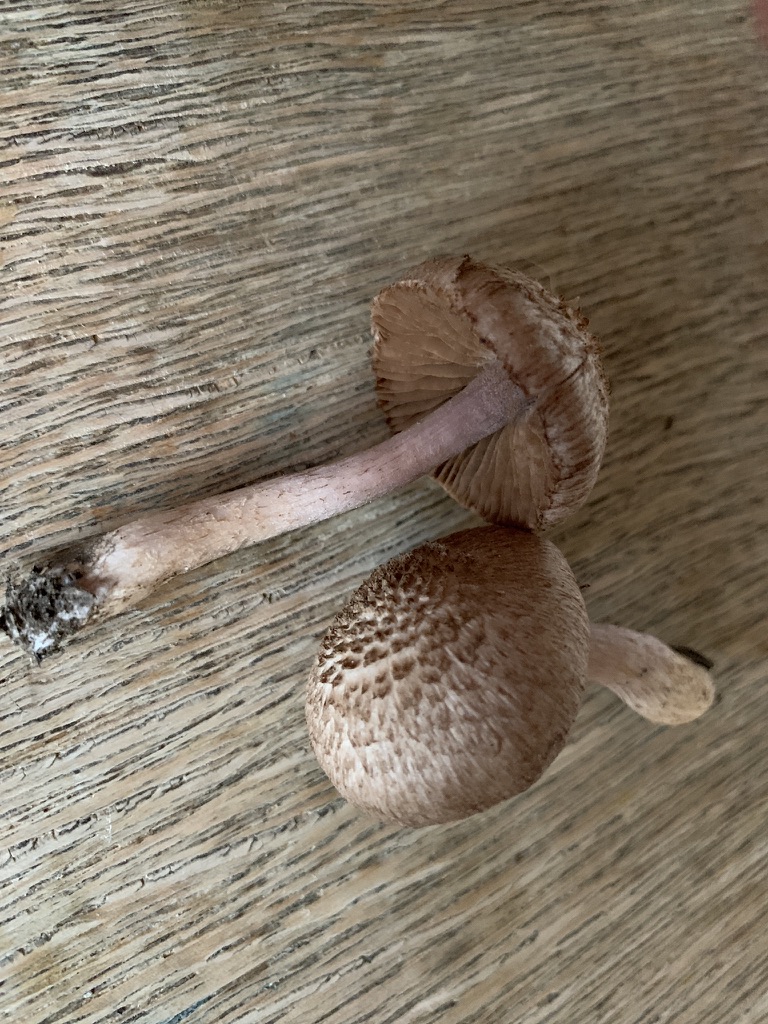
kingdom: Fungi
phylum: Basidiomycota
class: Agaricomycetes
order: Agaricales
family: Inocybaceae
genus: Inocybe
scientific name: Inocybe cincinnata
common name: lillabladet trævlhat
